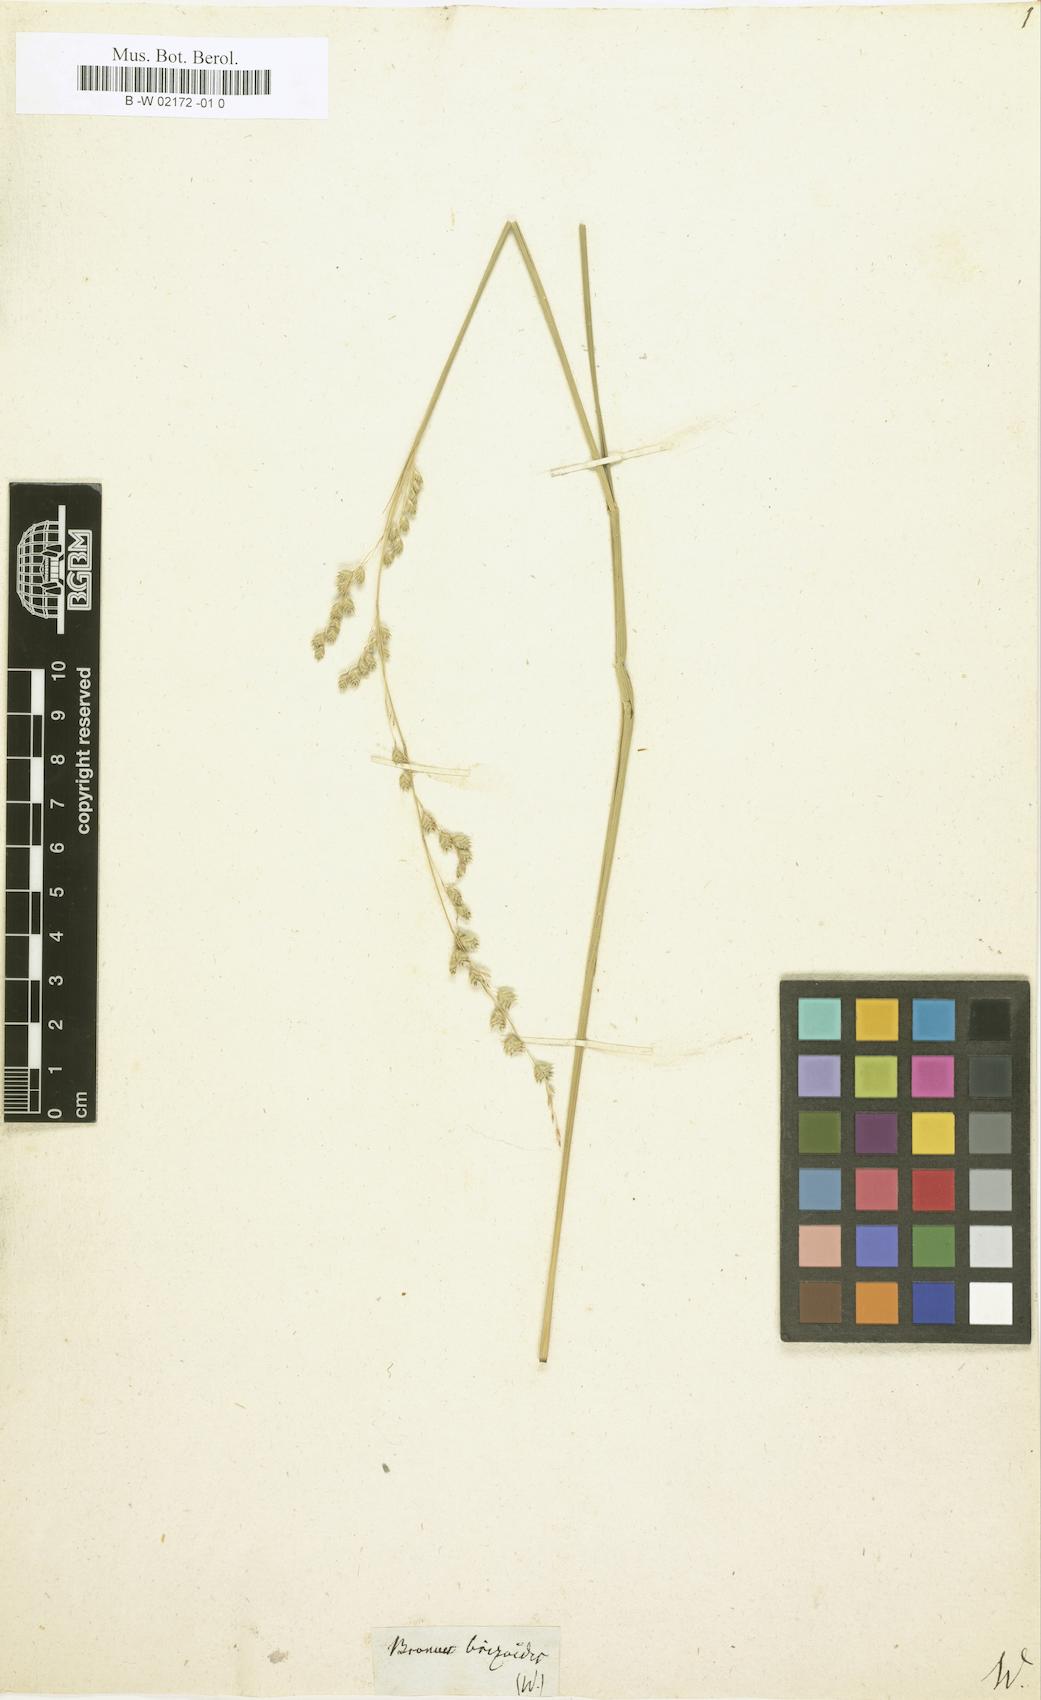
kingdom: Plantae
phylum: Tracheophyta
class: Liliopsida
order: Poales
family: Poaceae
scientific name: Poaceae
